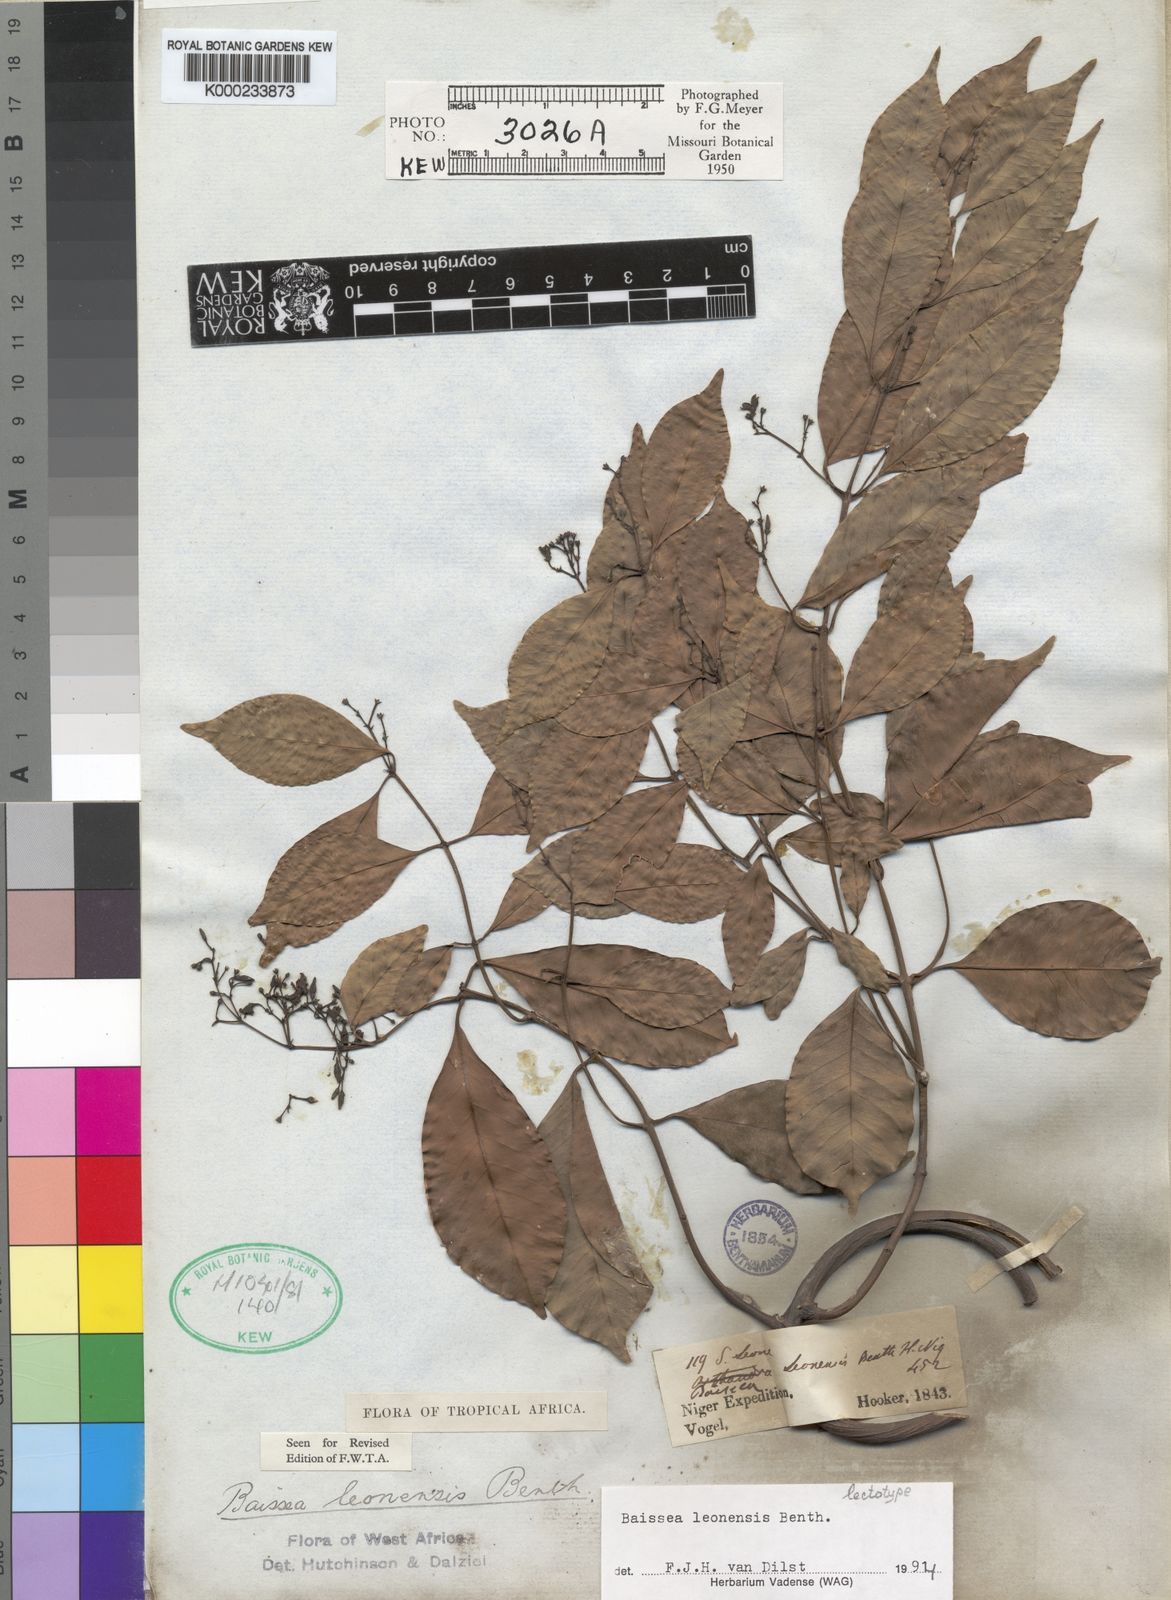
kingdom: Plantae
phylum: Tracheophyta
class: Magnoliopsida
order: Gentianales
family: Apocynaceae
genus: Baissea
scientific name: Baissea leonensis
